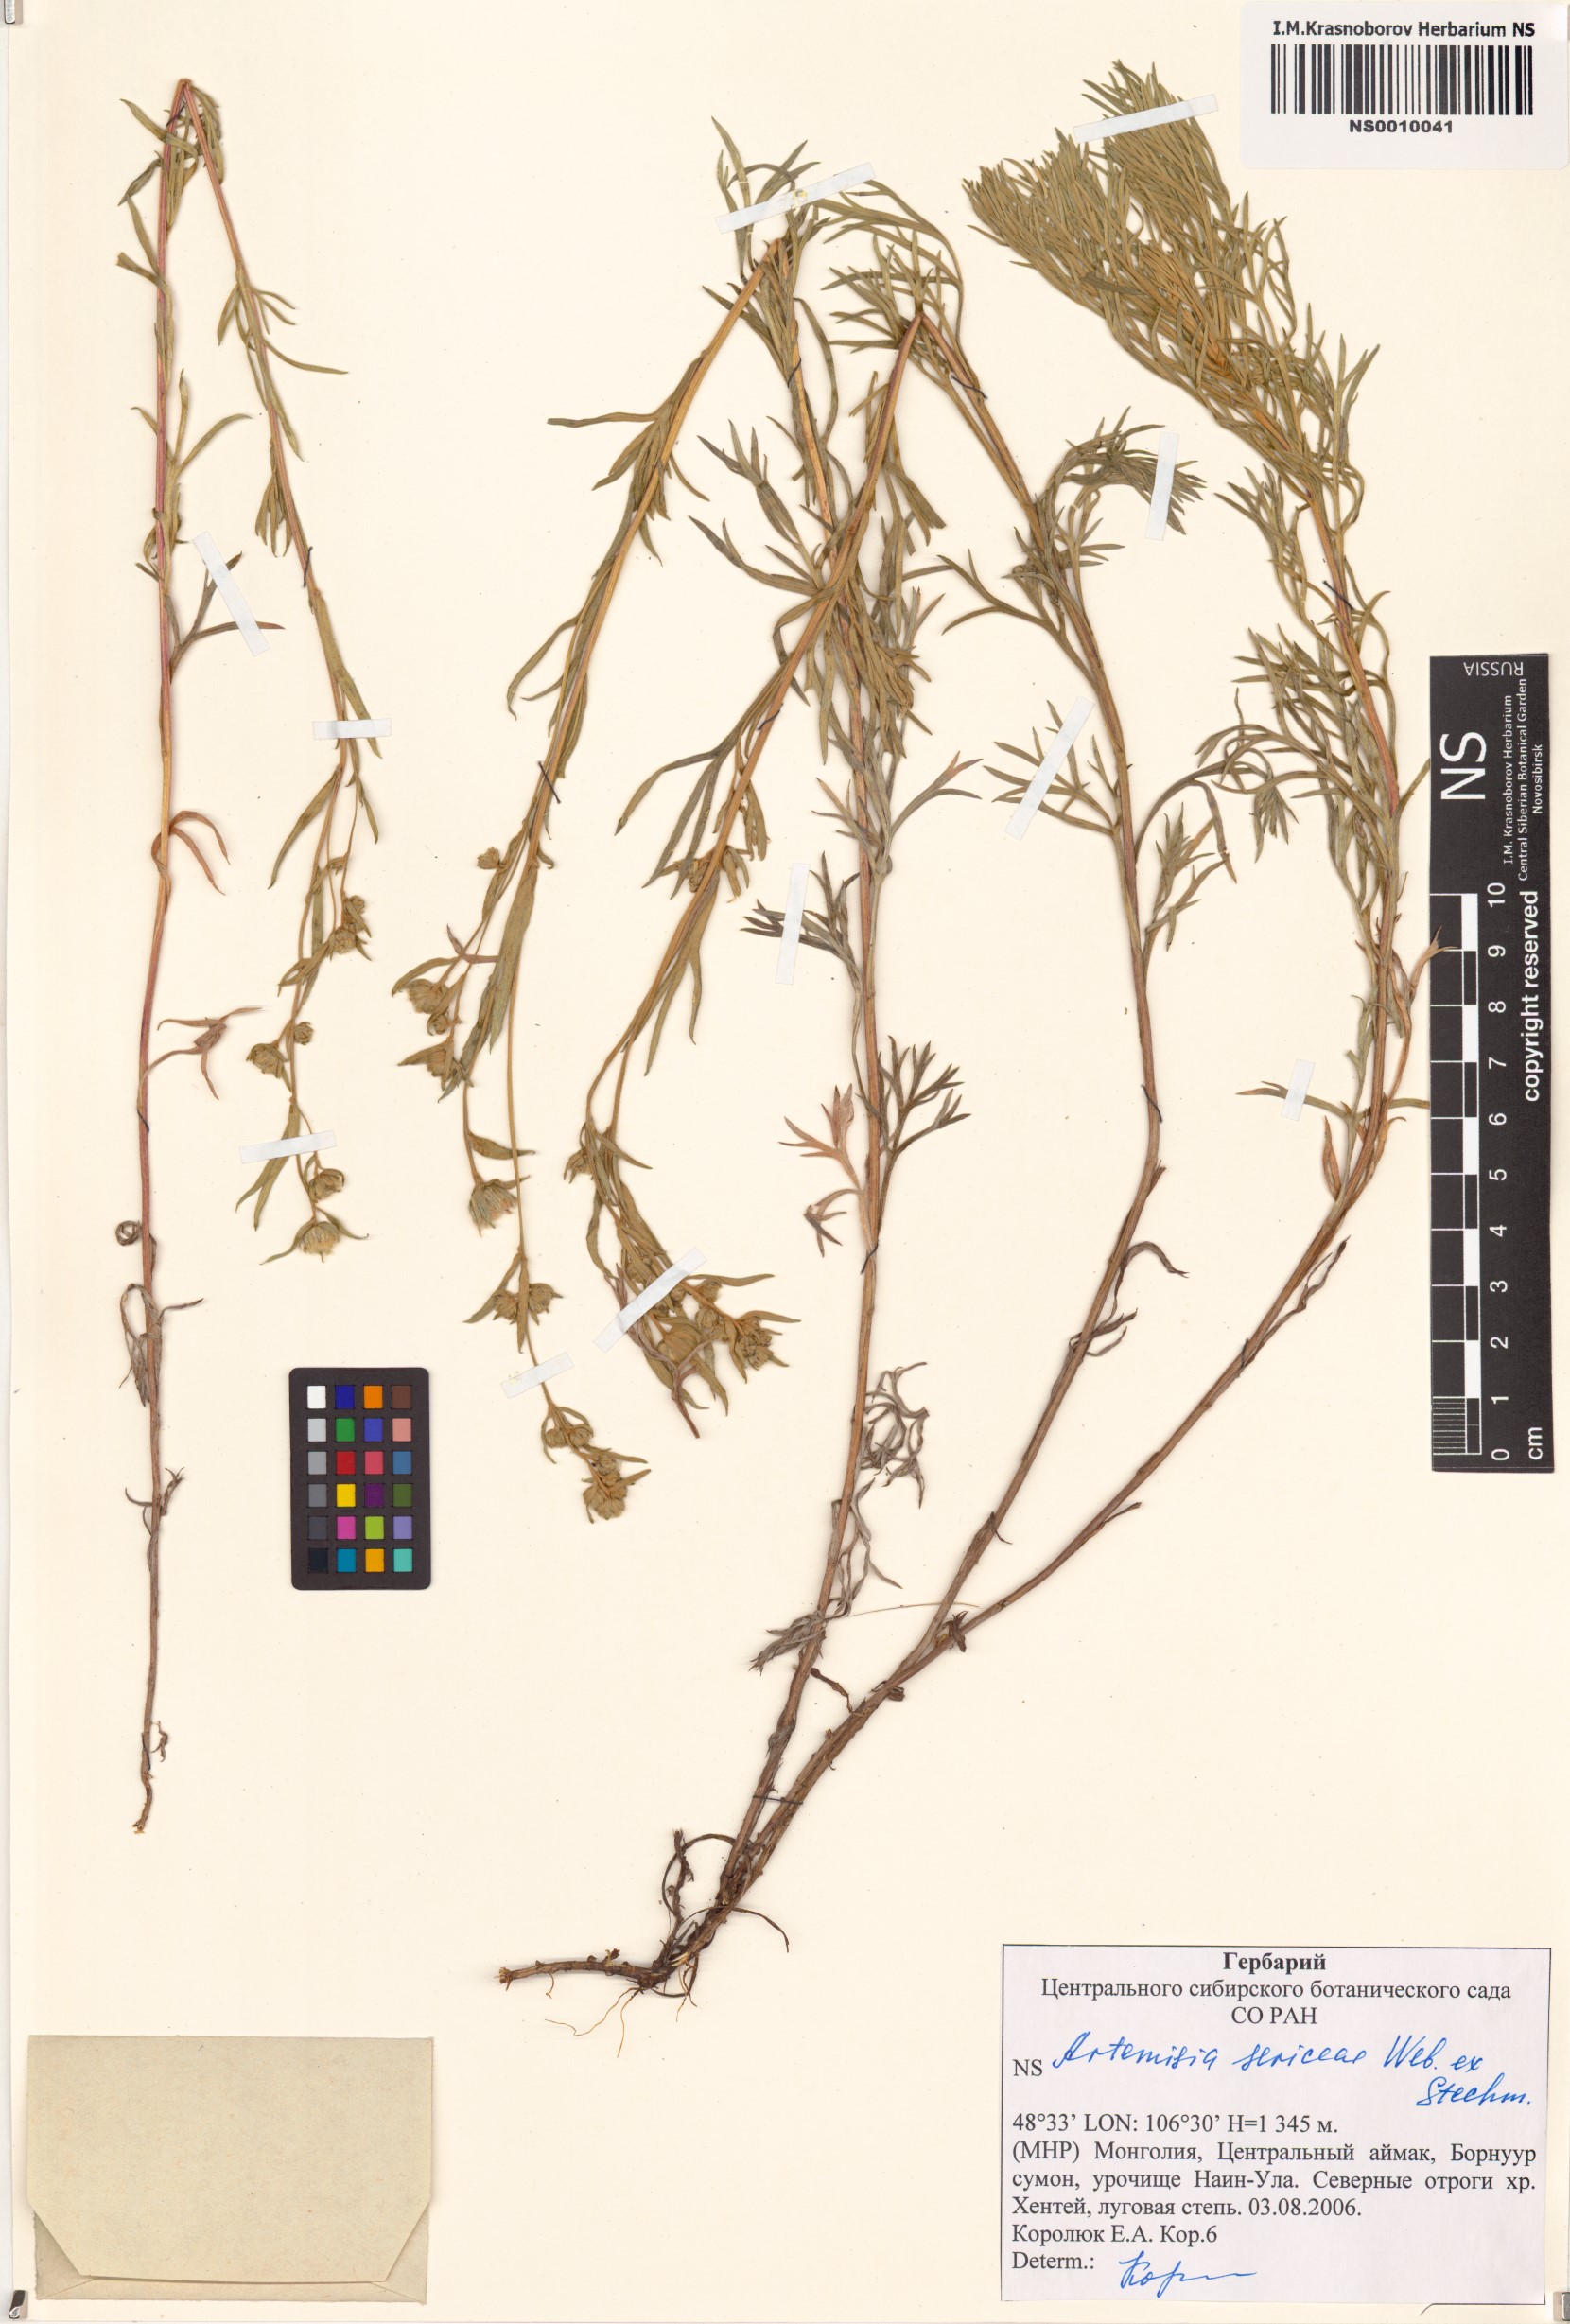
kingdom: Plantae
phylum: Tracheophyta
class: Magnoliopsida
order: Asterales
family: Asteraceae
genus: Artemisia
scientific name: Artemisia sericea
